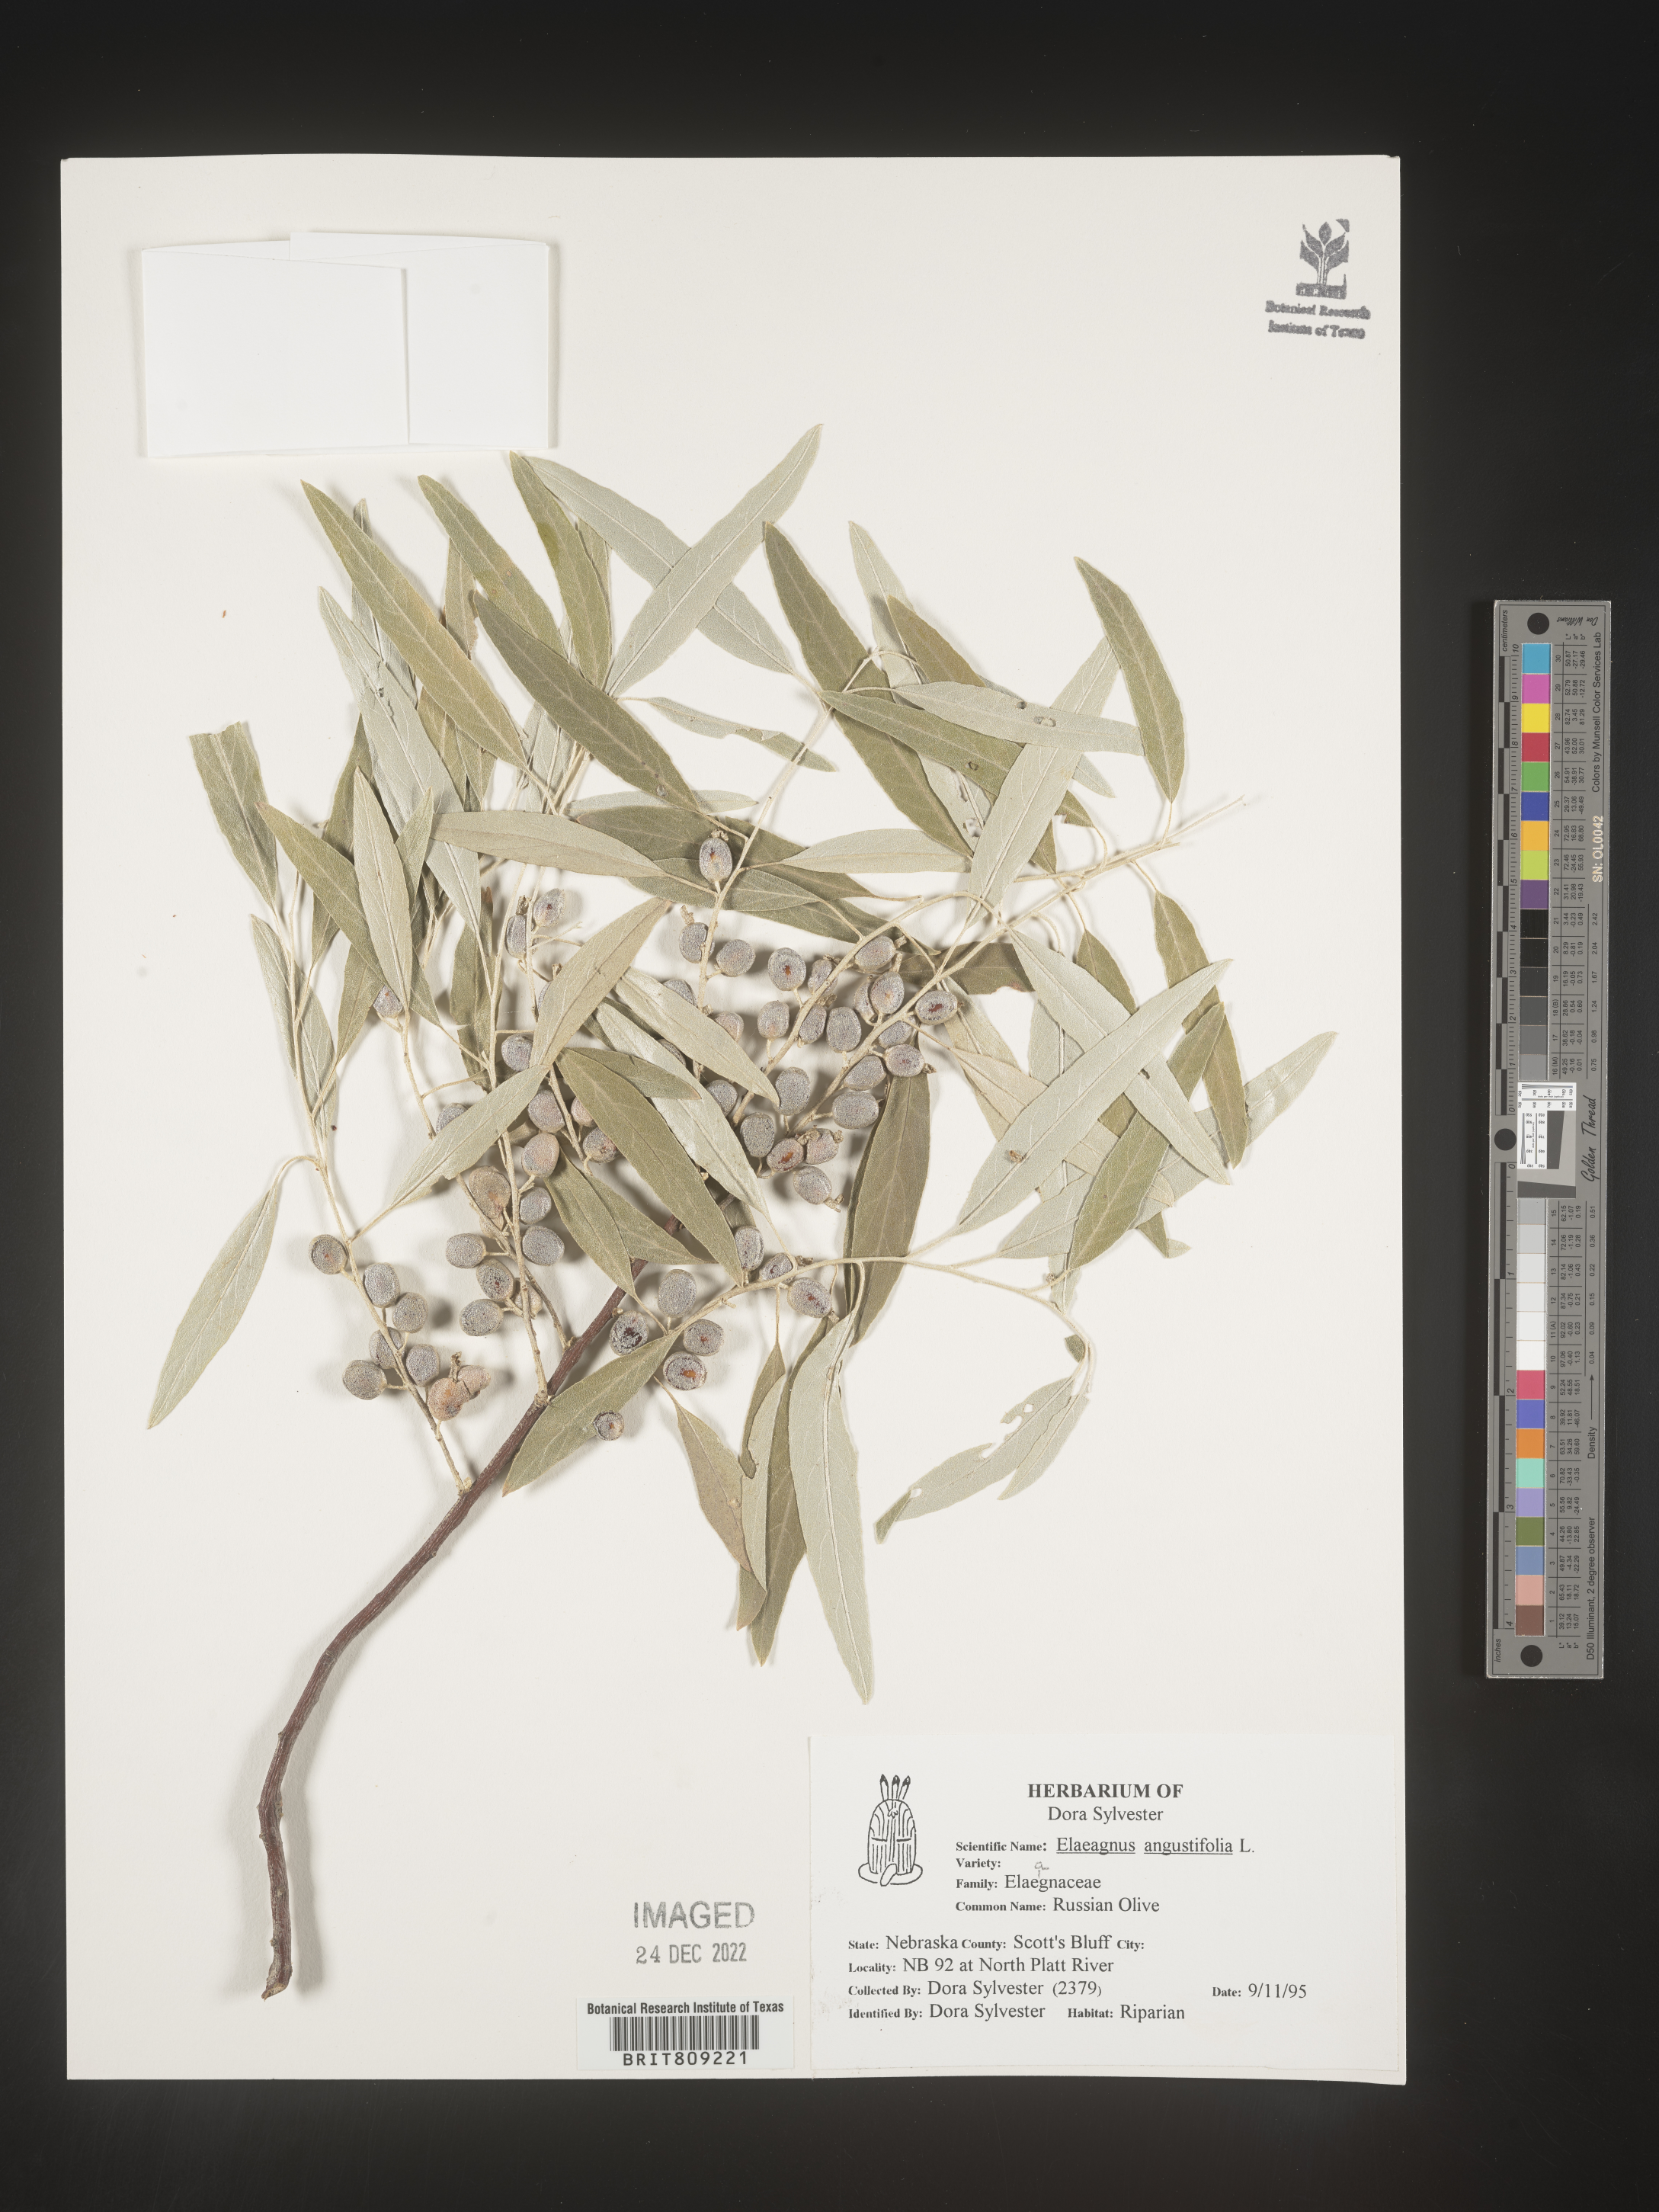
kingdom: Plantae
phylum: Tracheophyta
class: Magnoliopsida
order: Rosales
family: Elaeagnaceae
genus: Elaeagnus
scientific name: Elaeagnus angustifolia
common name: Russian olive
